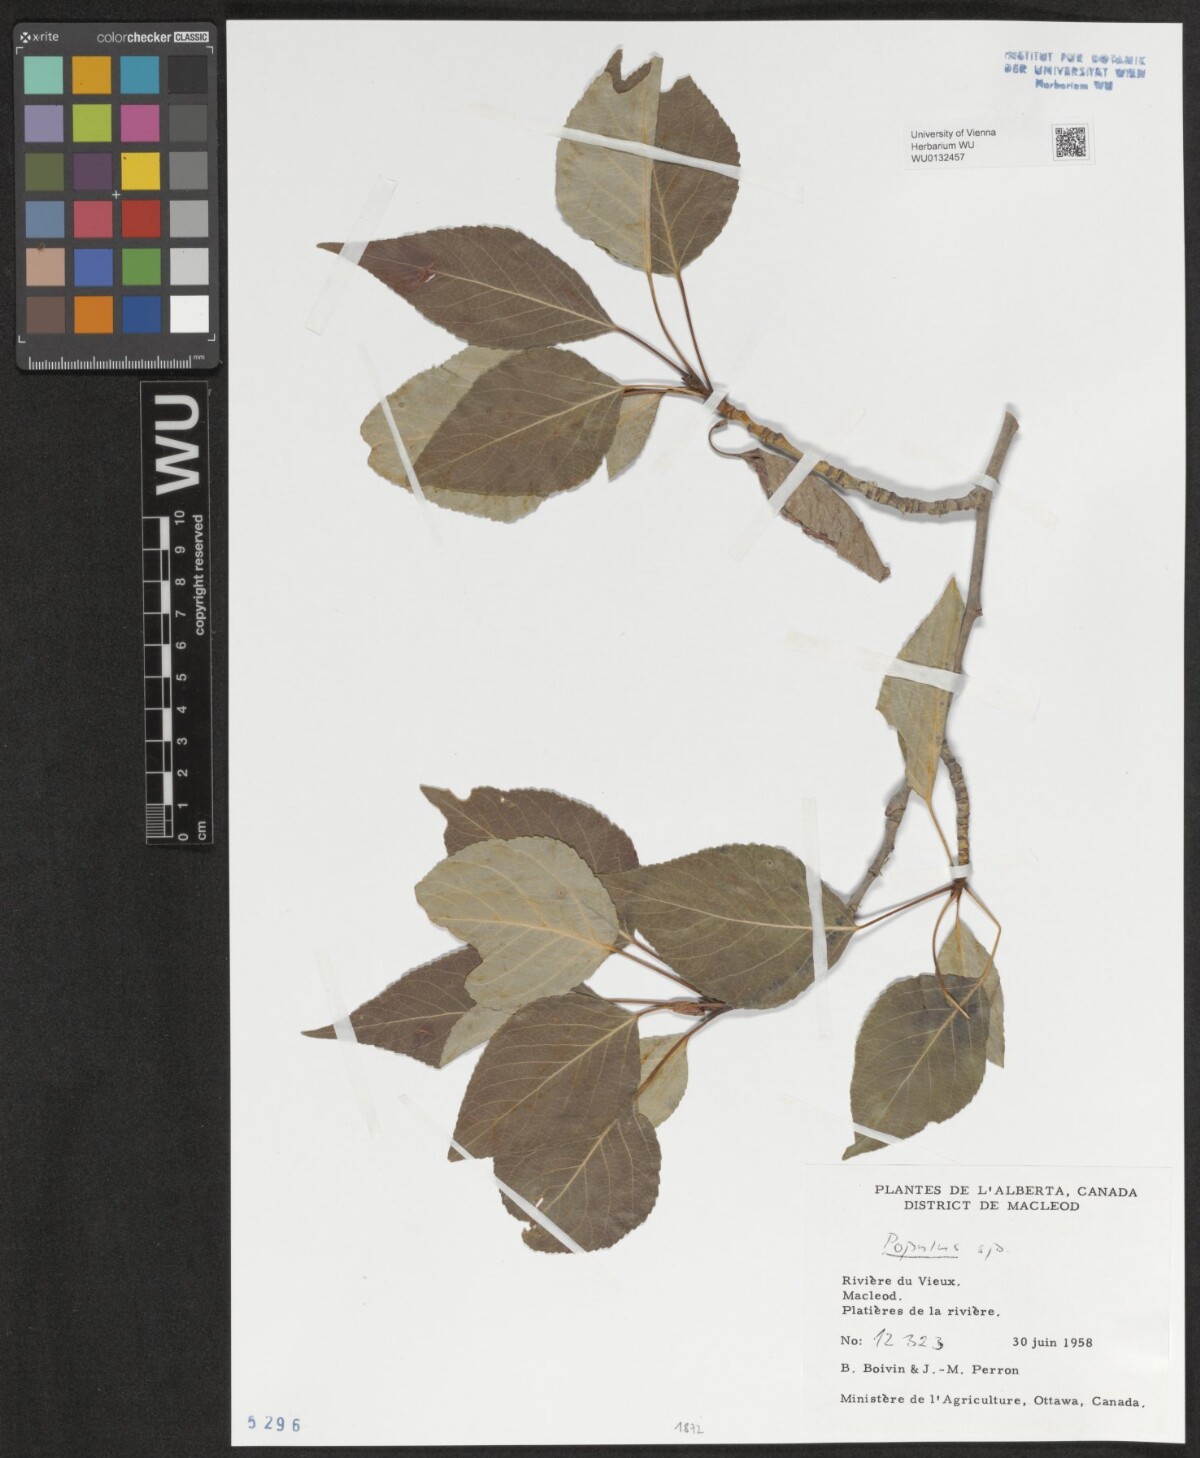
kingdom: Plantae
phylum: Tracheophyta
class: Magnoliopsida
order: Malpighiales
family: Salicaceae
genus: Populus
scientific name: Populus
